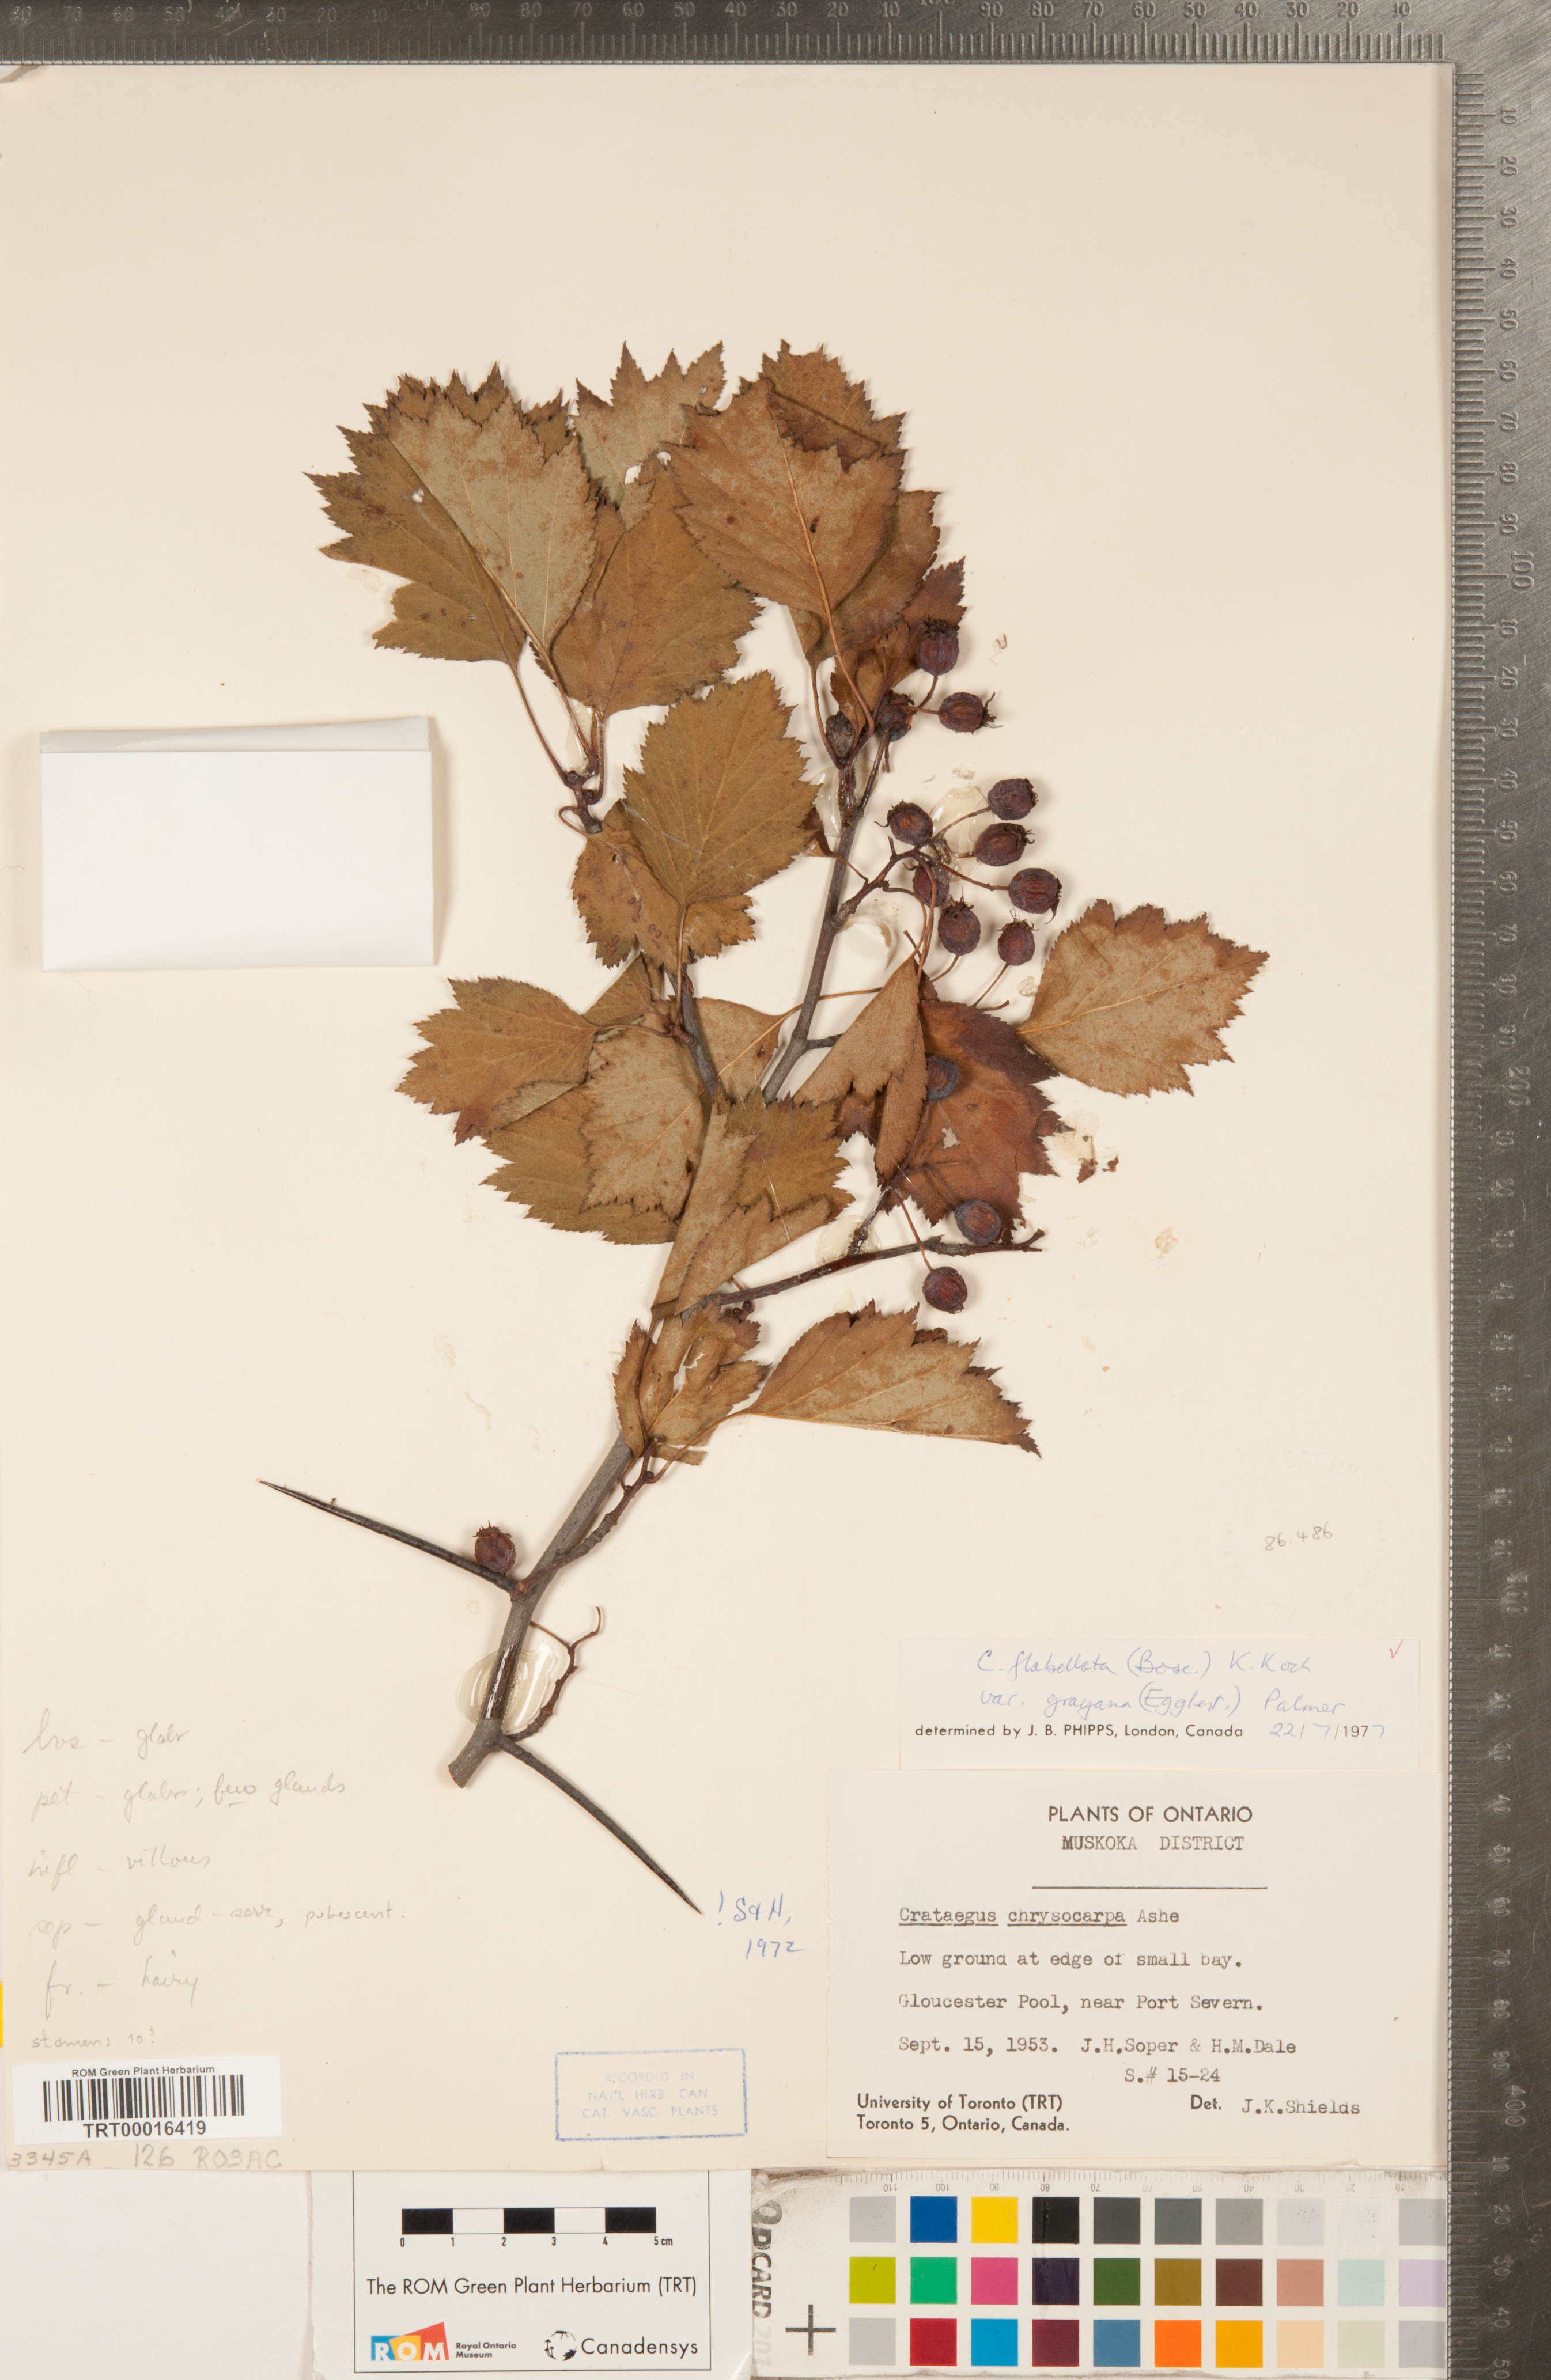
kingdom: Plantae
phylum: Tracheophyta
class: Magnoliopsida
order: Rosales
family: Rosaceae
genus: Crataegus
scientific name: Crataegus flabellata
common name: Bosc's hawthorn
